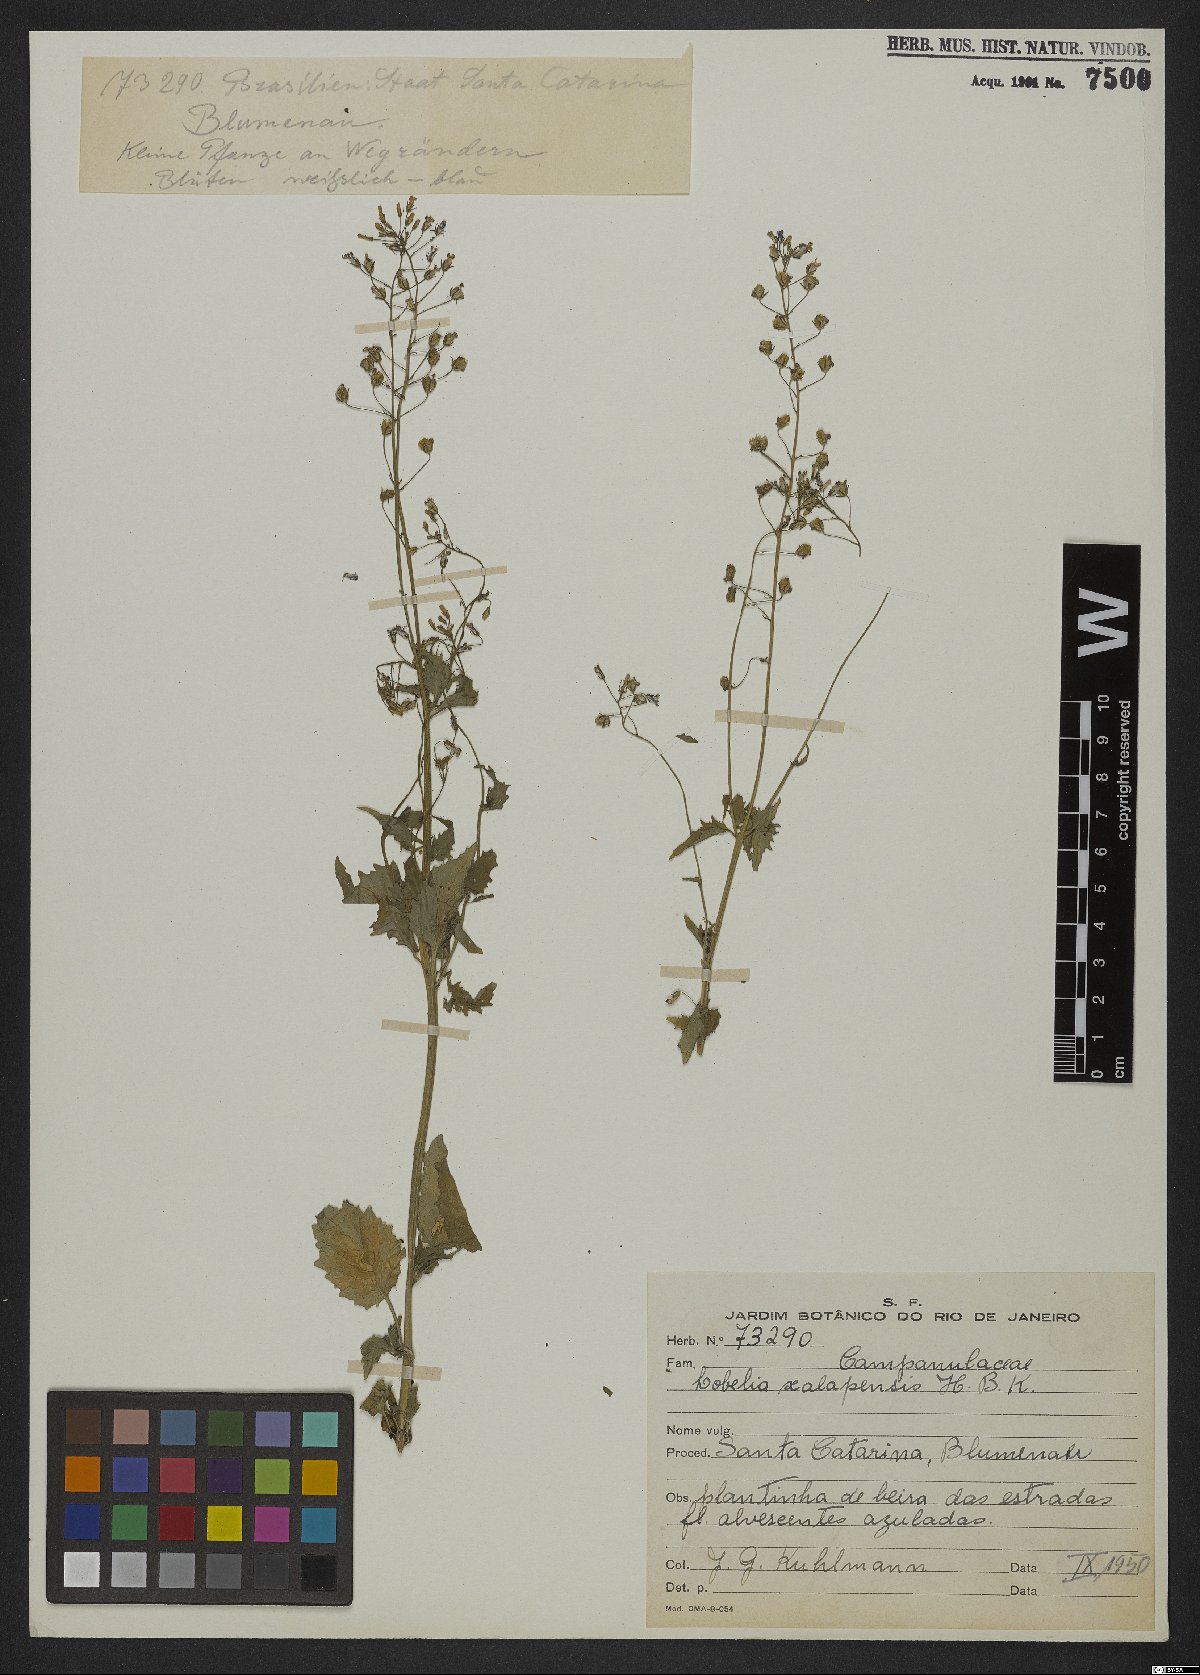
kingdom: Plantae
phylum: Tracheophyta
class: Magnoliopsida
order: Asterales
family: Campanulaceae
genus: Lobelia
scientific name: Lobelia xalapensis
